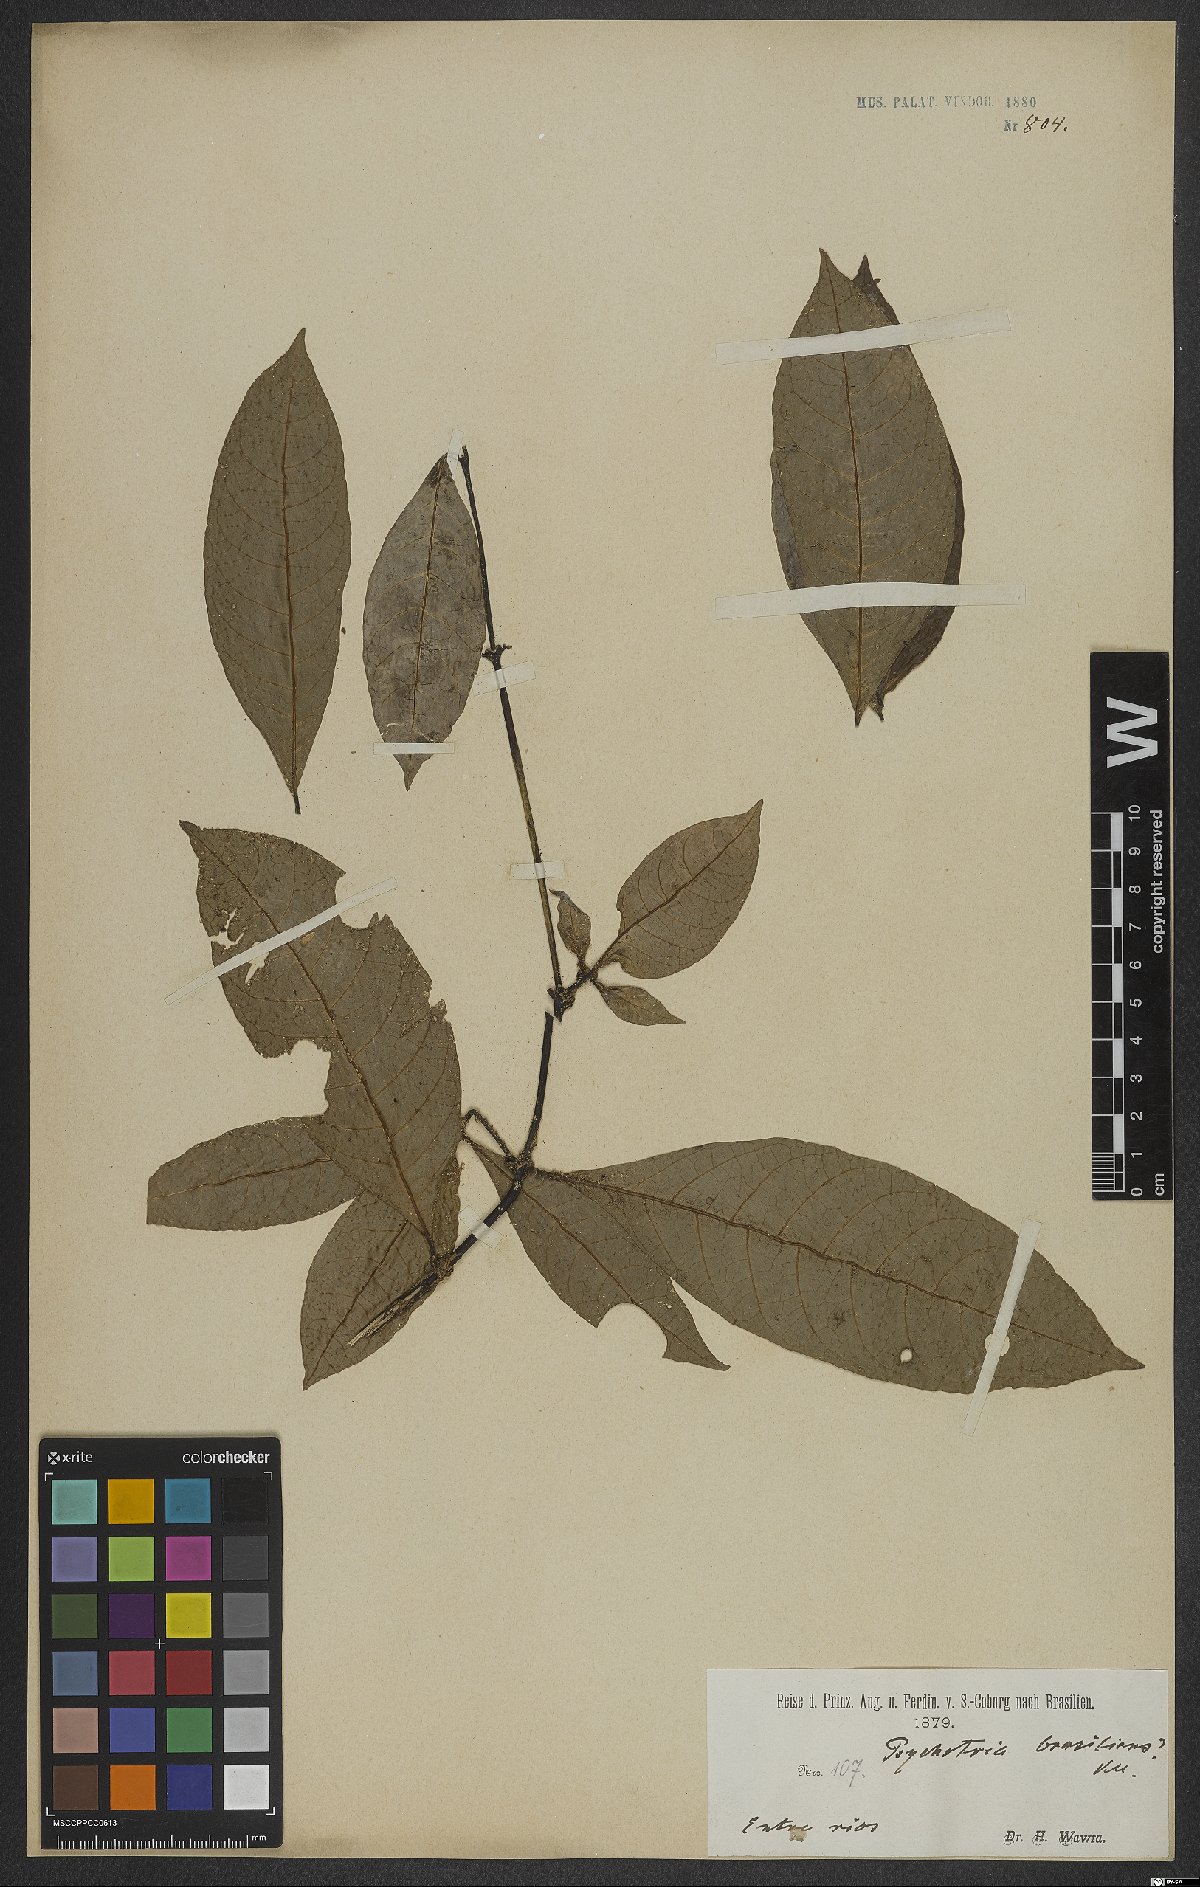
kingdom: Plantae
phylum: Tracheophyta
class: Magnoliopsida
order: Gentianales
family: Rubiaceae
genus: Psychotria
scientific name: Psychotria nuda
